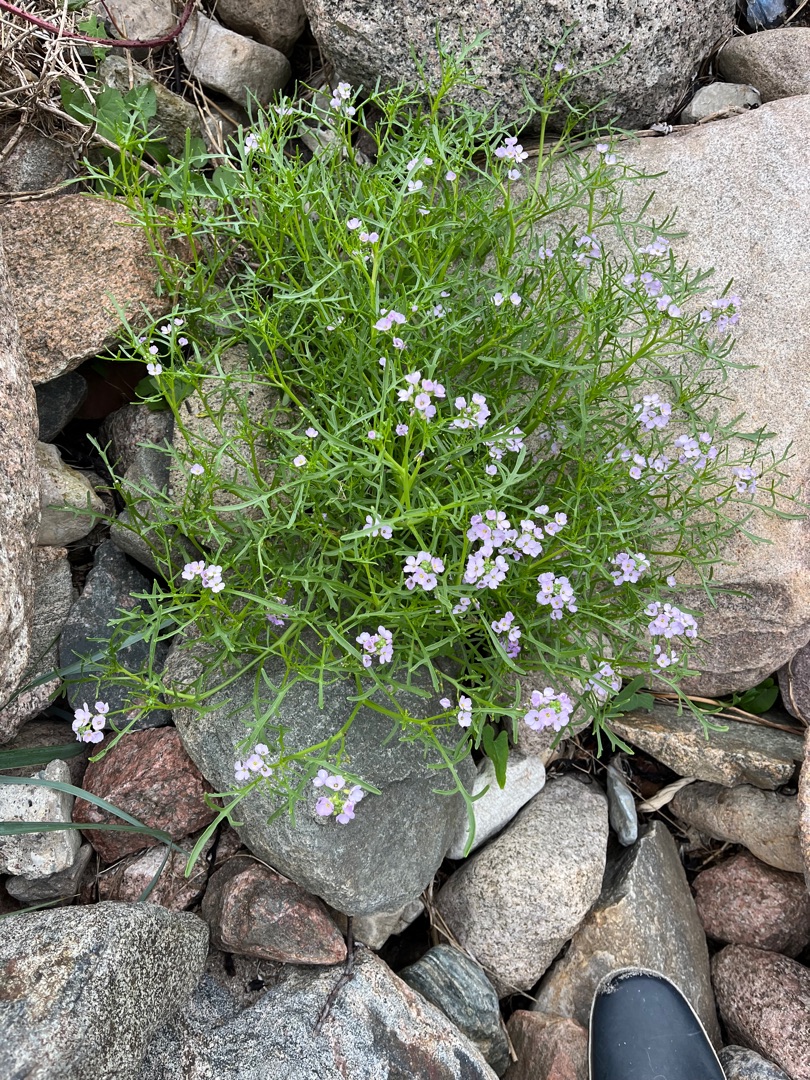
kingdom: Plantae
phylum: Tracheophyta
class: Magnoliopsida
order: Brassicales
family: Brassicaceae
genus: Cakile
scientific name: Cakile maritima
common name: Strandsennep
